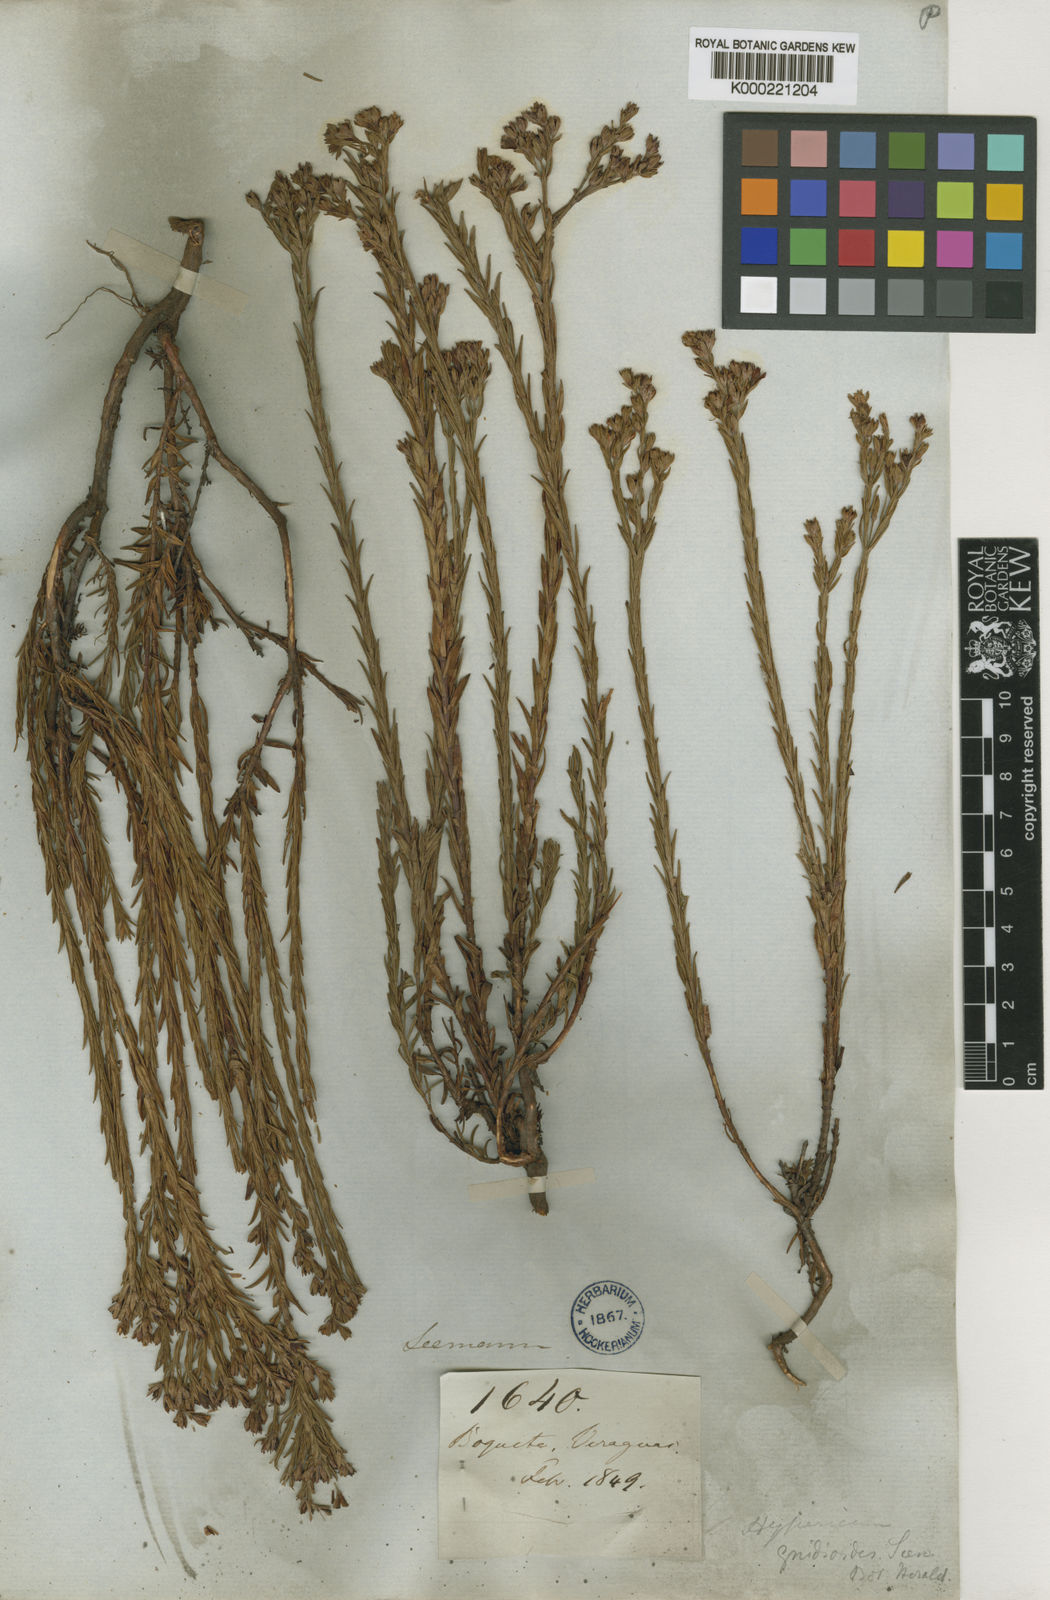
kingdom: Plantae
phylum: Tracheophyta
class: Magnoliopsida
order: Malpighiales
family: Hypericaceae
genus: Hypericum
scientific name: Hypericum gnidioides
